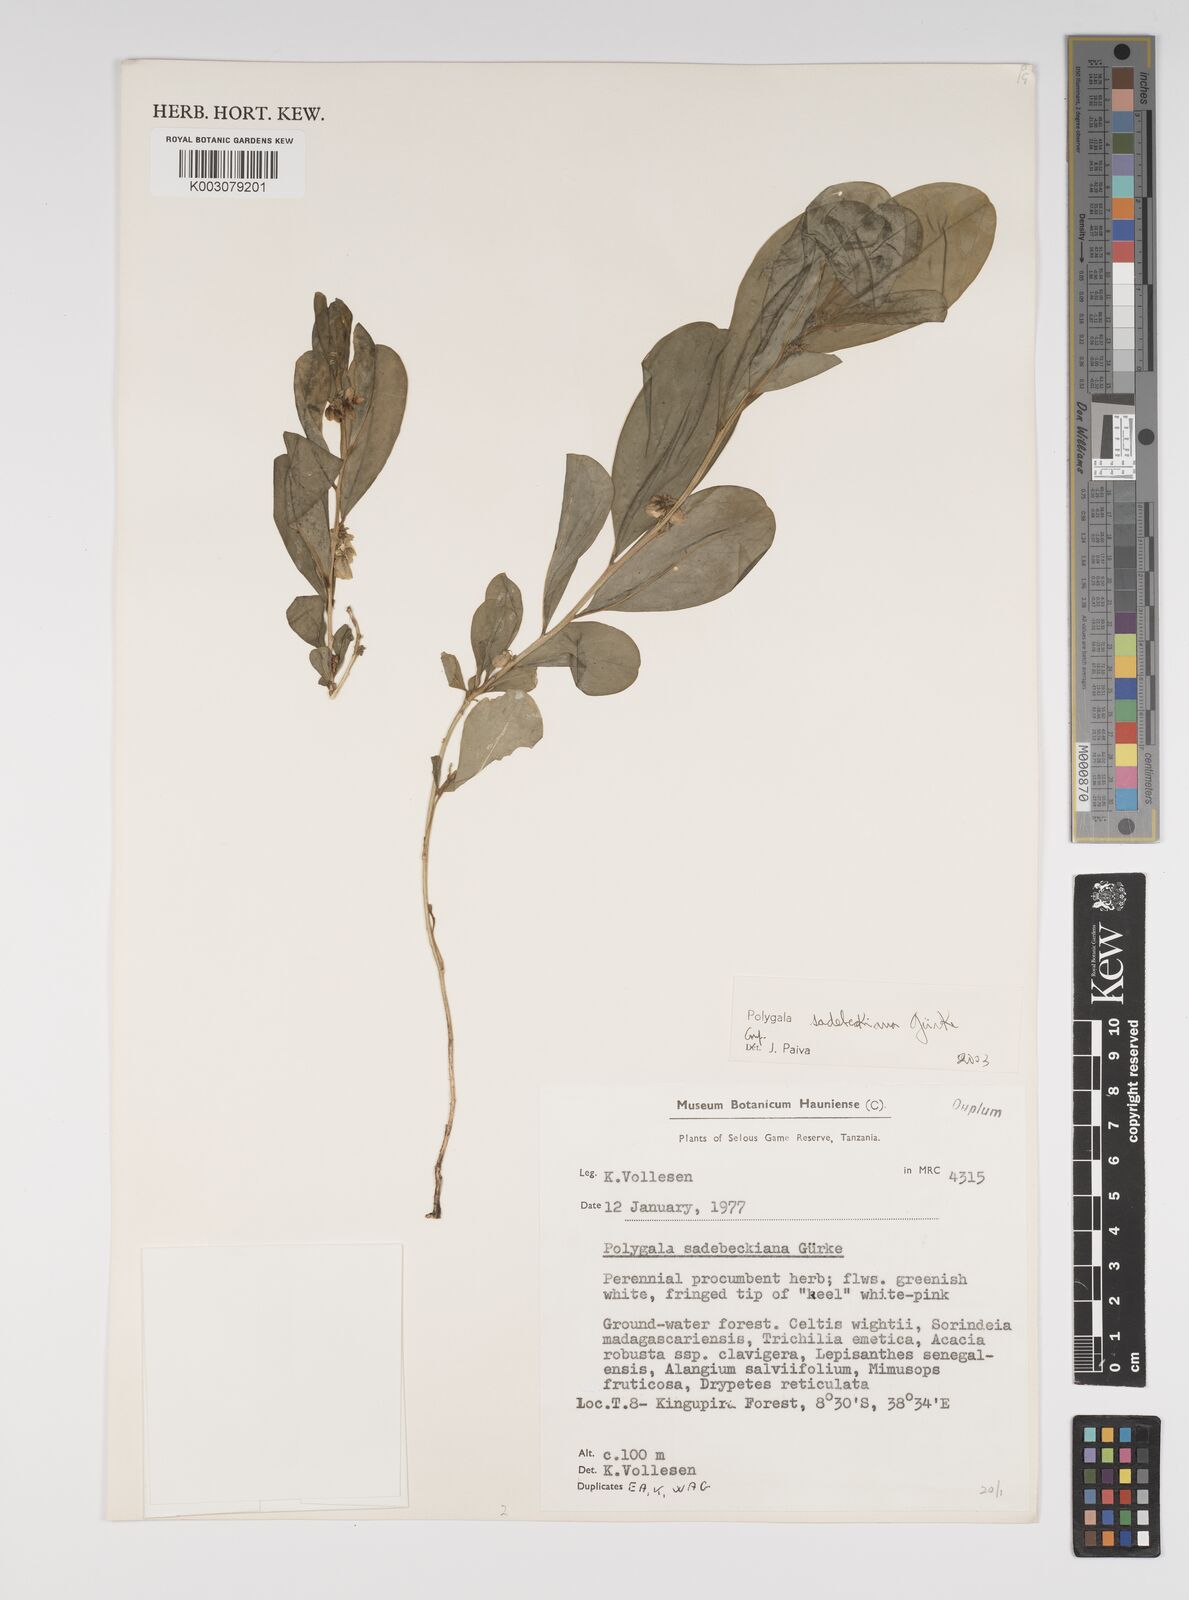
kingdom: Plantae
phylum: Tracheophyta
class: Magnoliopsida
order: Fabales
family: Polygalaceae
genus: Polygala
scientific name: Polygala sadebeckiana
